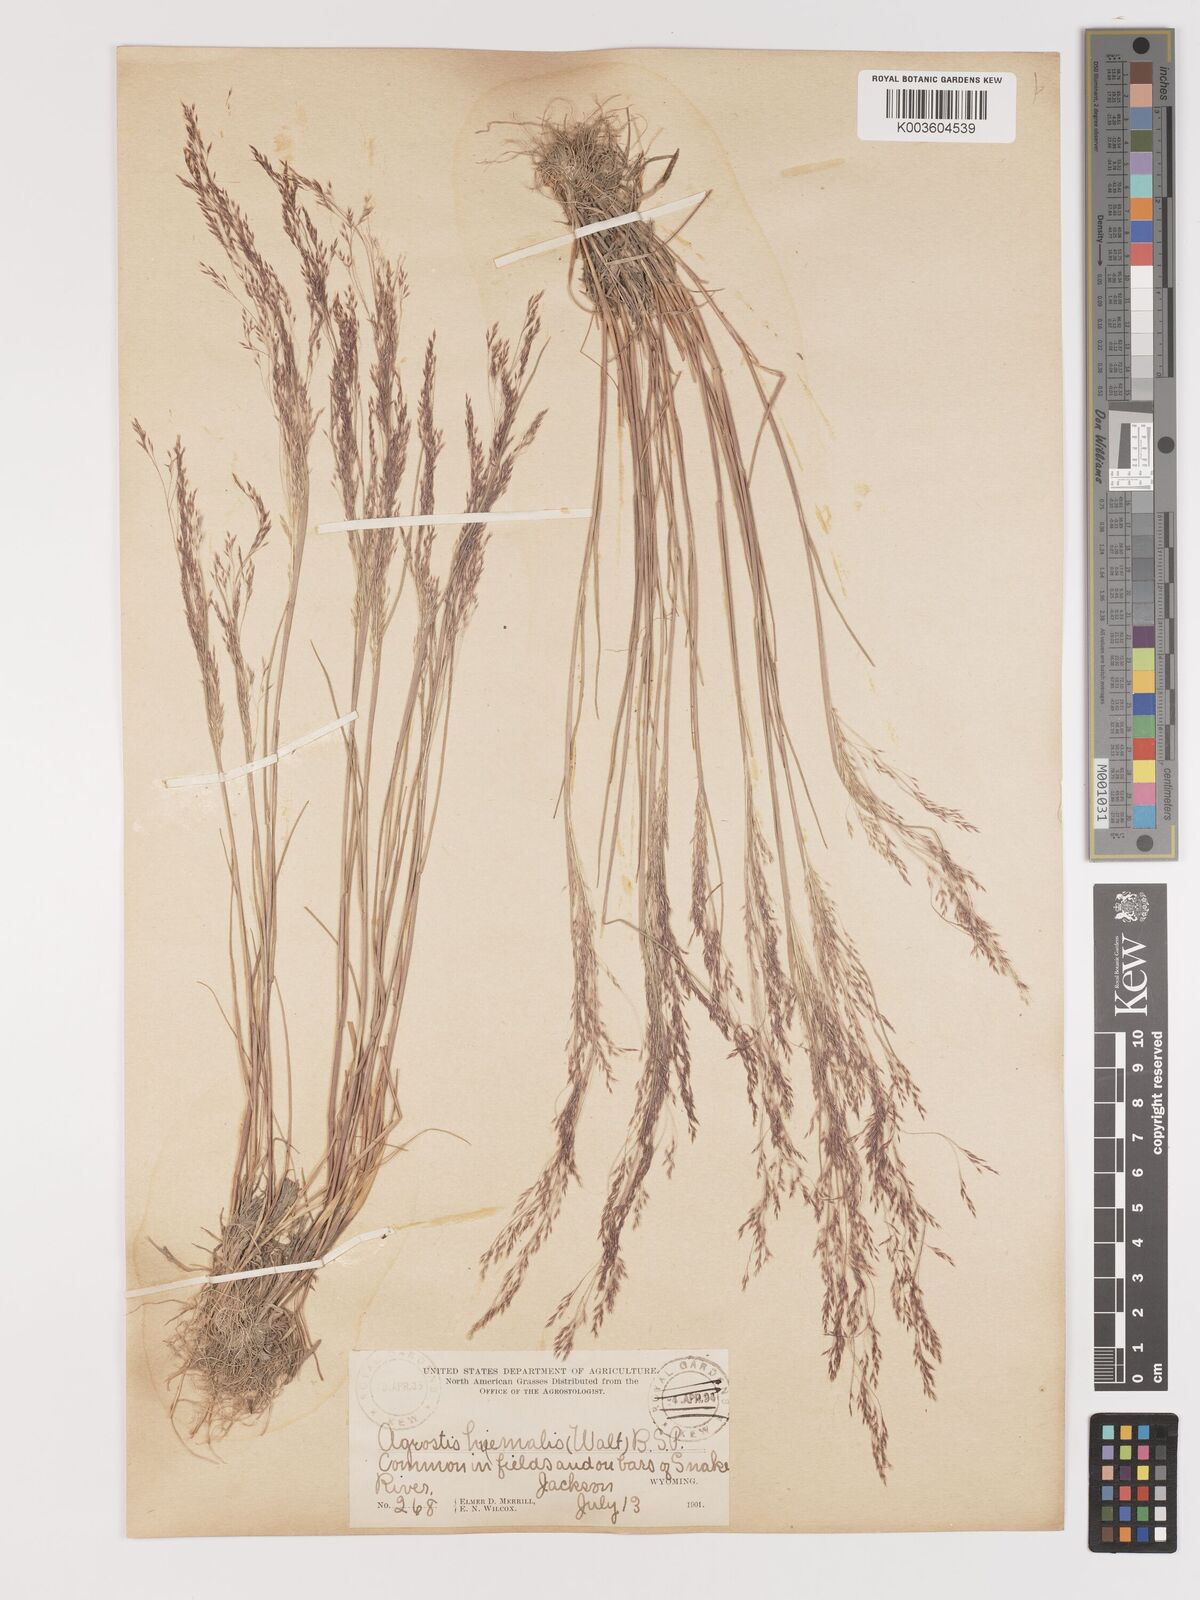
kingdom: Plantae
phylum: Tracheophyta
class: Liliopsida
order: Poales
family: Poaceae
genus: Agrostis
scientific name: Agrostis hyemalis
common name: Small bent
